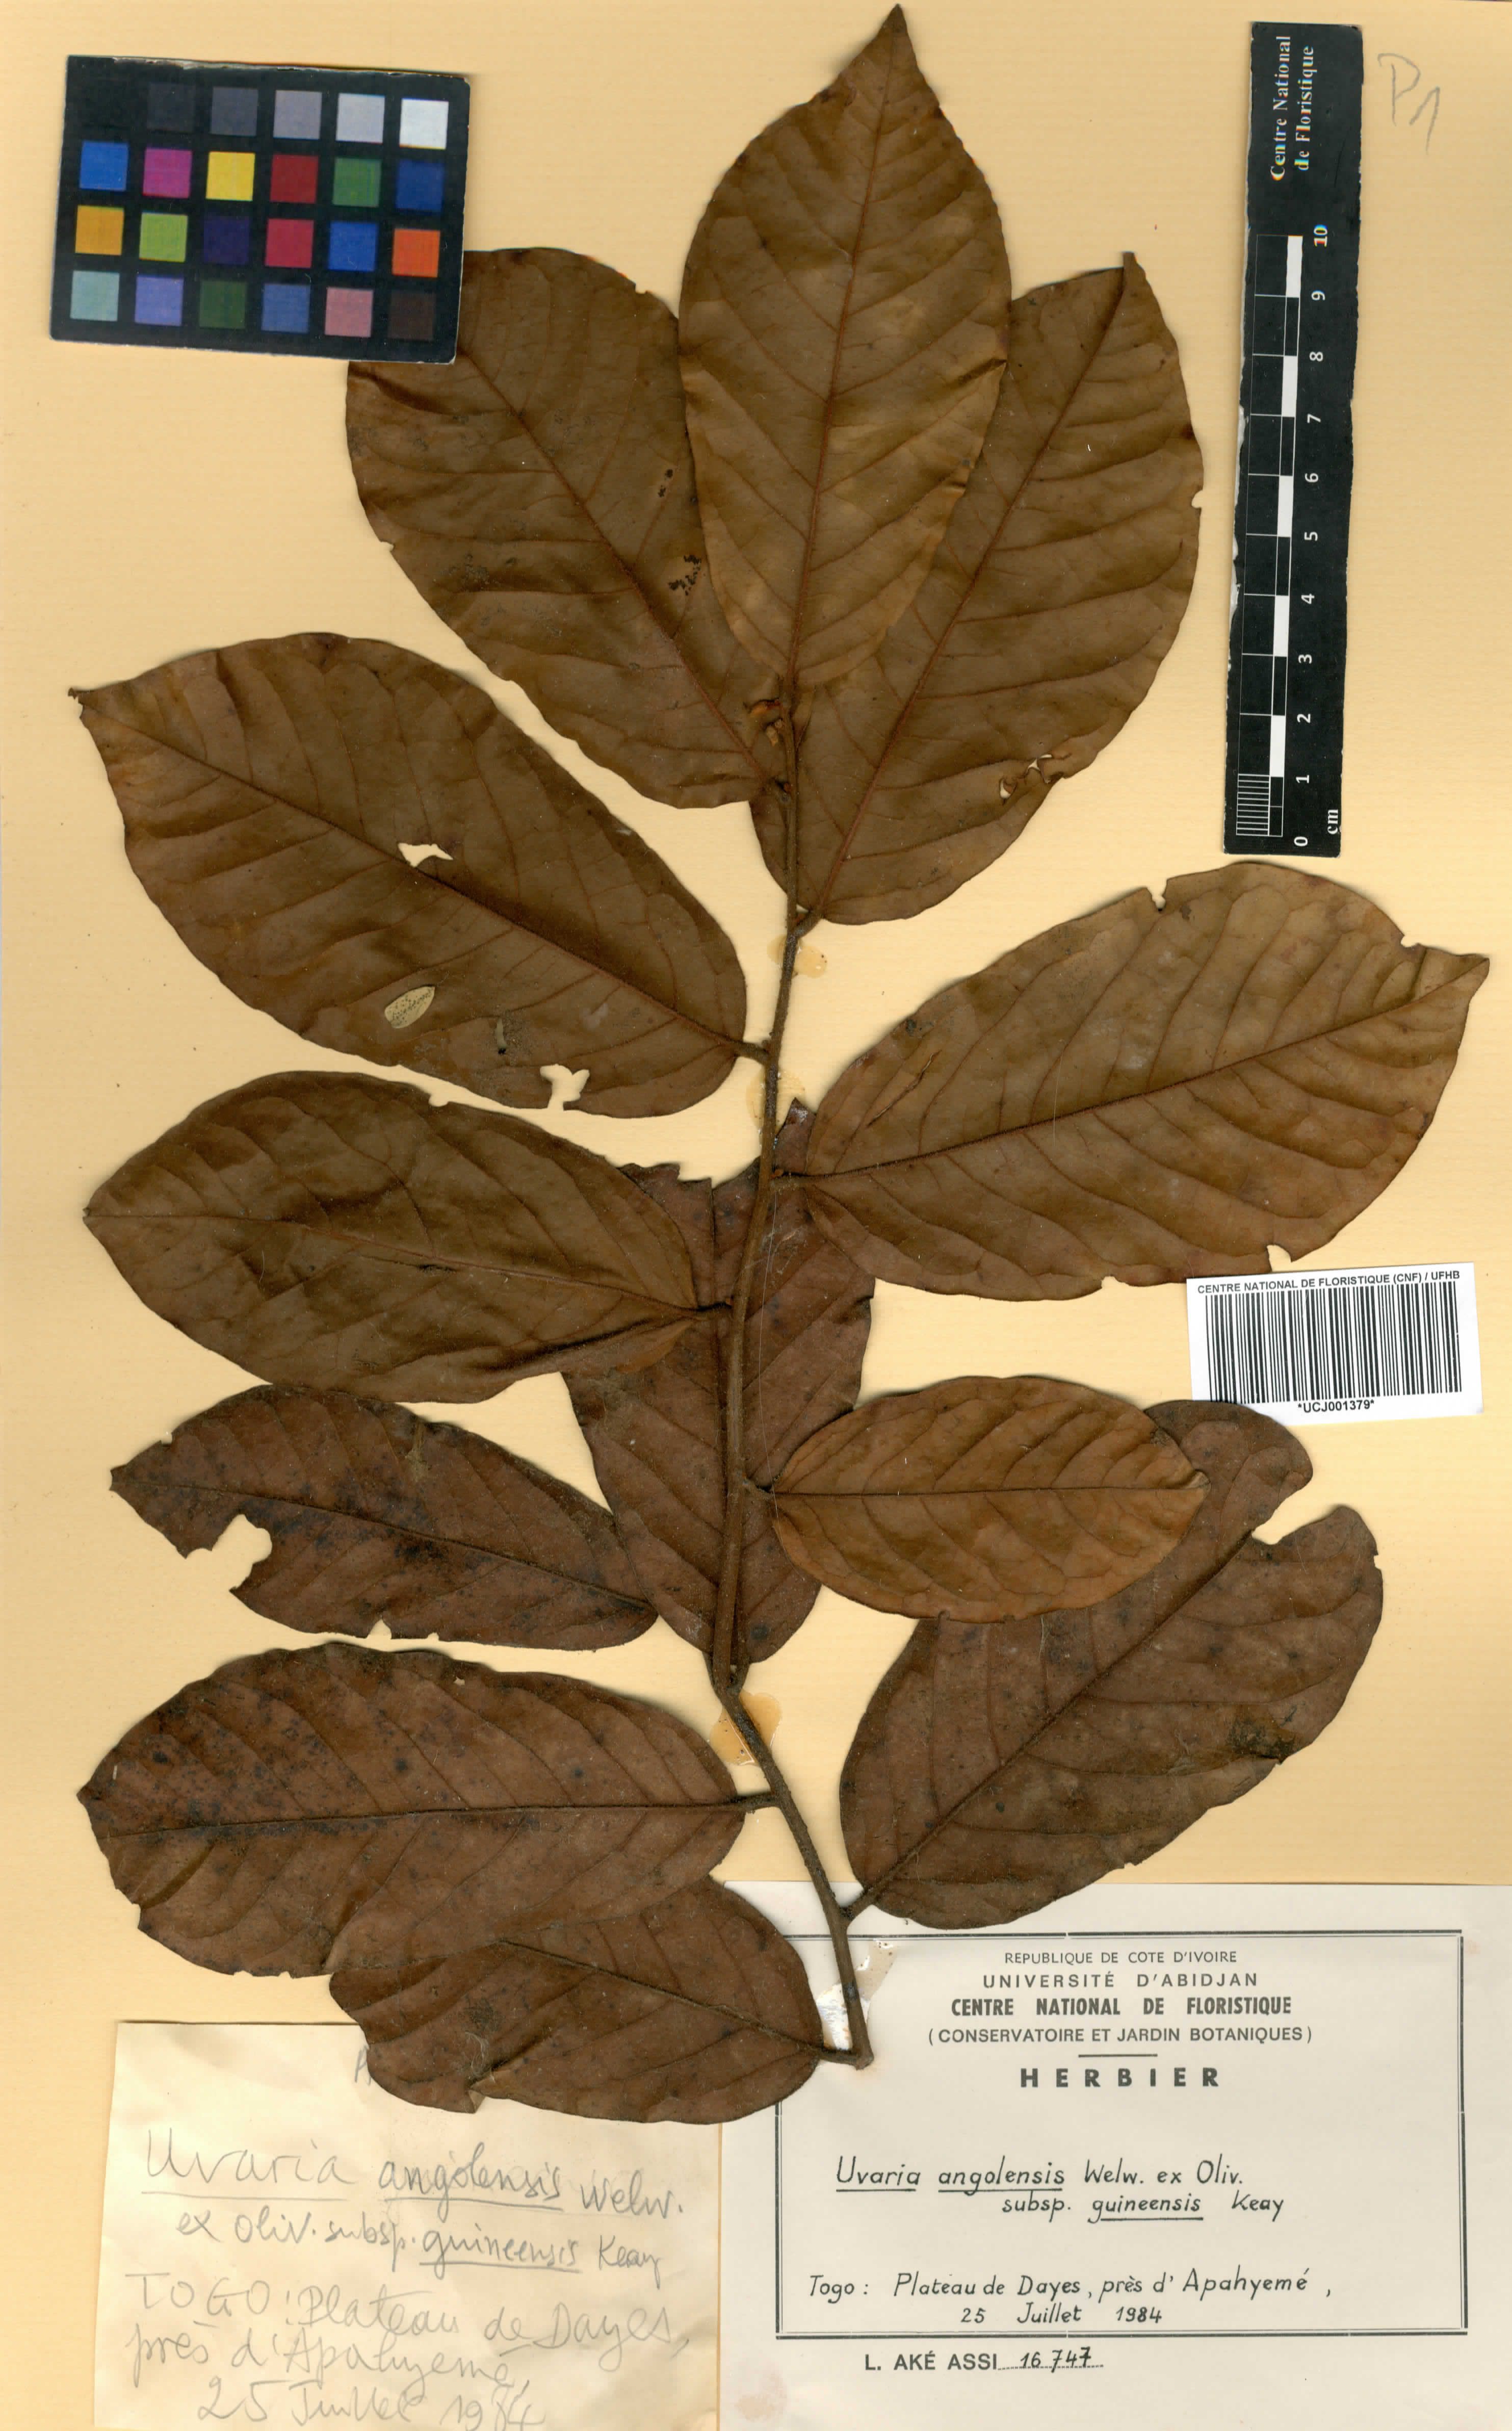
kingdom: Plantae
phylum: Tracheophyta
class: Magnoliopsida
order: Magnoliales
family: Annonaceae
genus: Uvaria
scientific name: Uvaria angolensis
